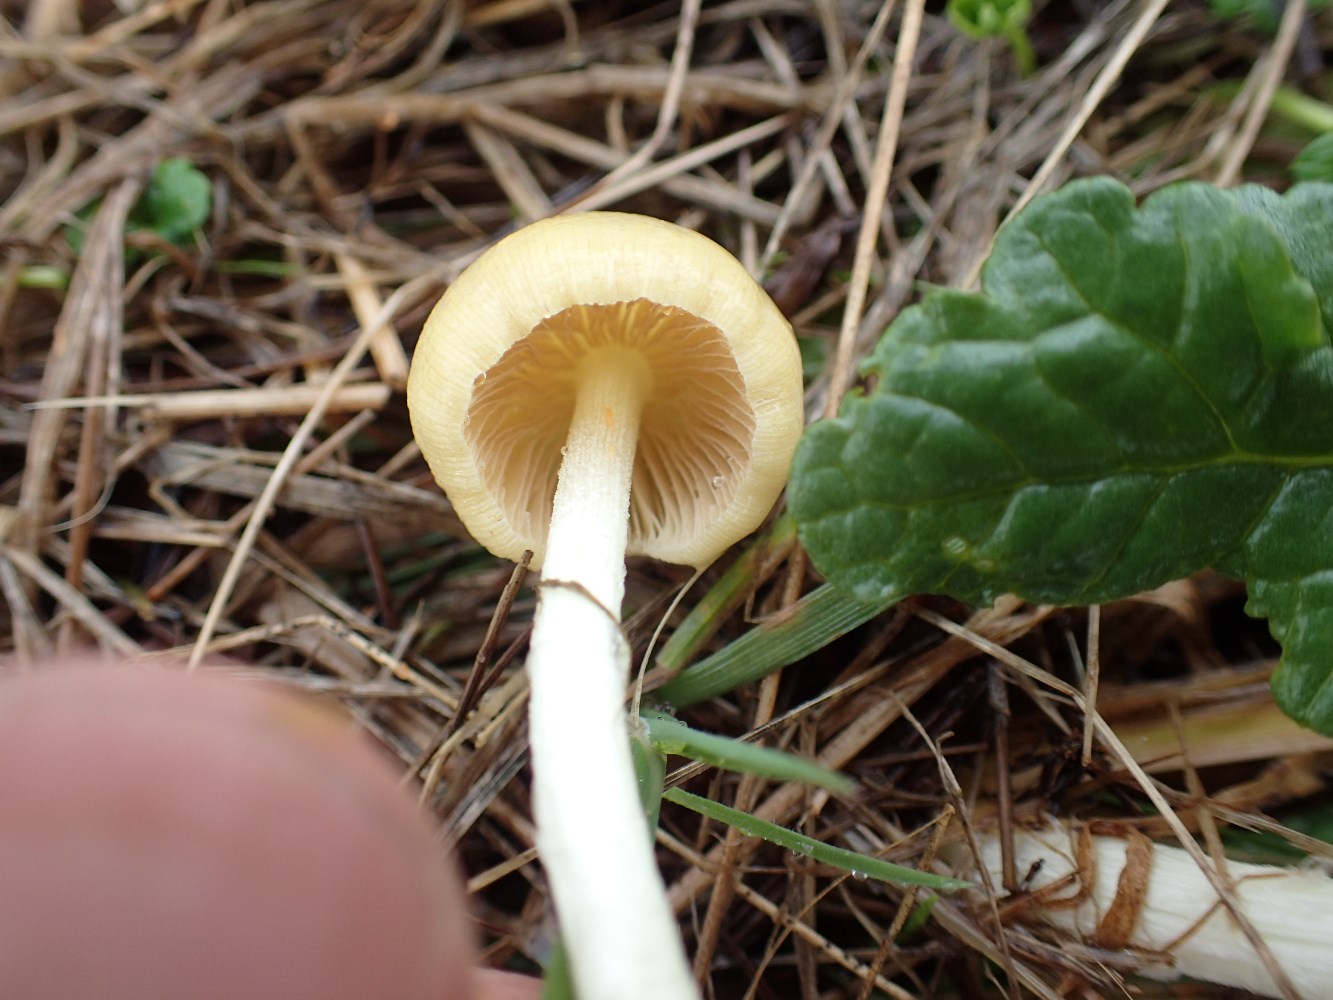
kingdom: Fungi
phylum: Basidiomycota
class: Agaricomycetes
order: Agaricales
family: Bolbitiaceae
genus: Bolbitius
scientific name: Bolbitius titubans
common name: almindelig gulhat
